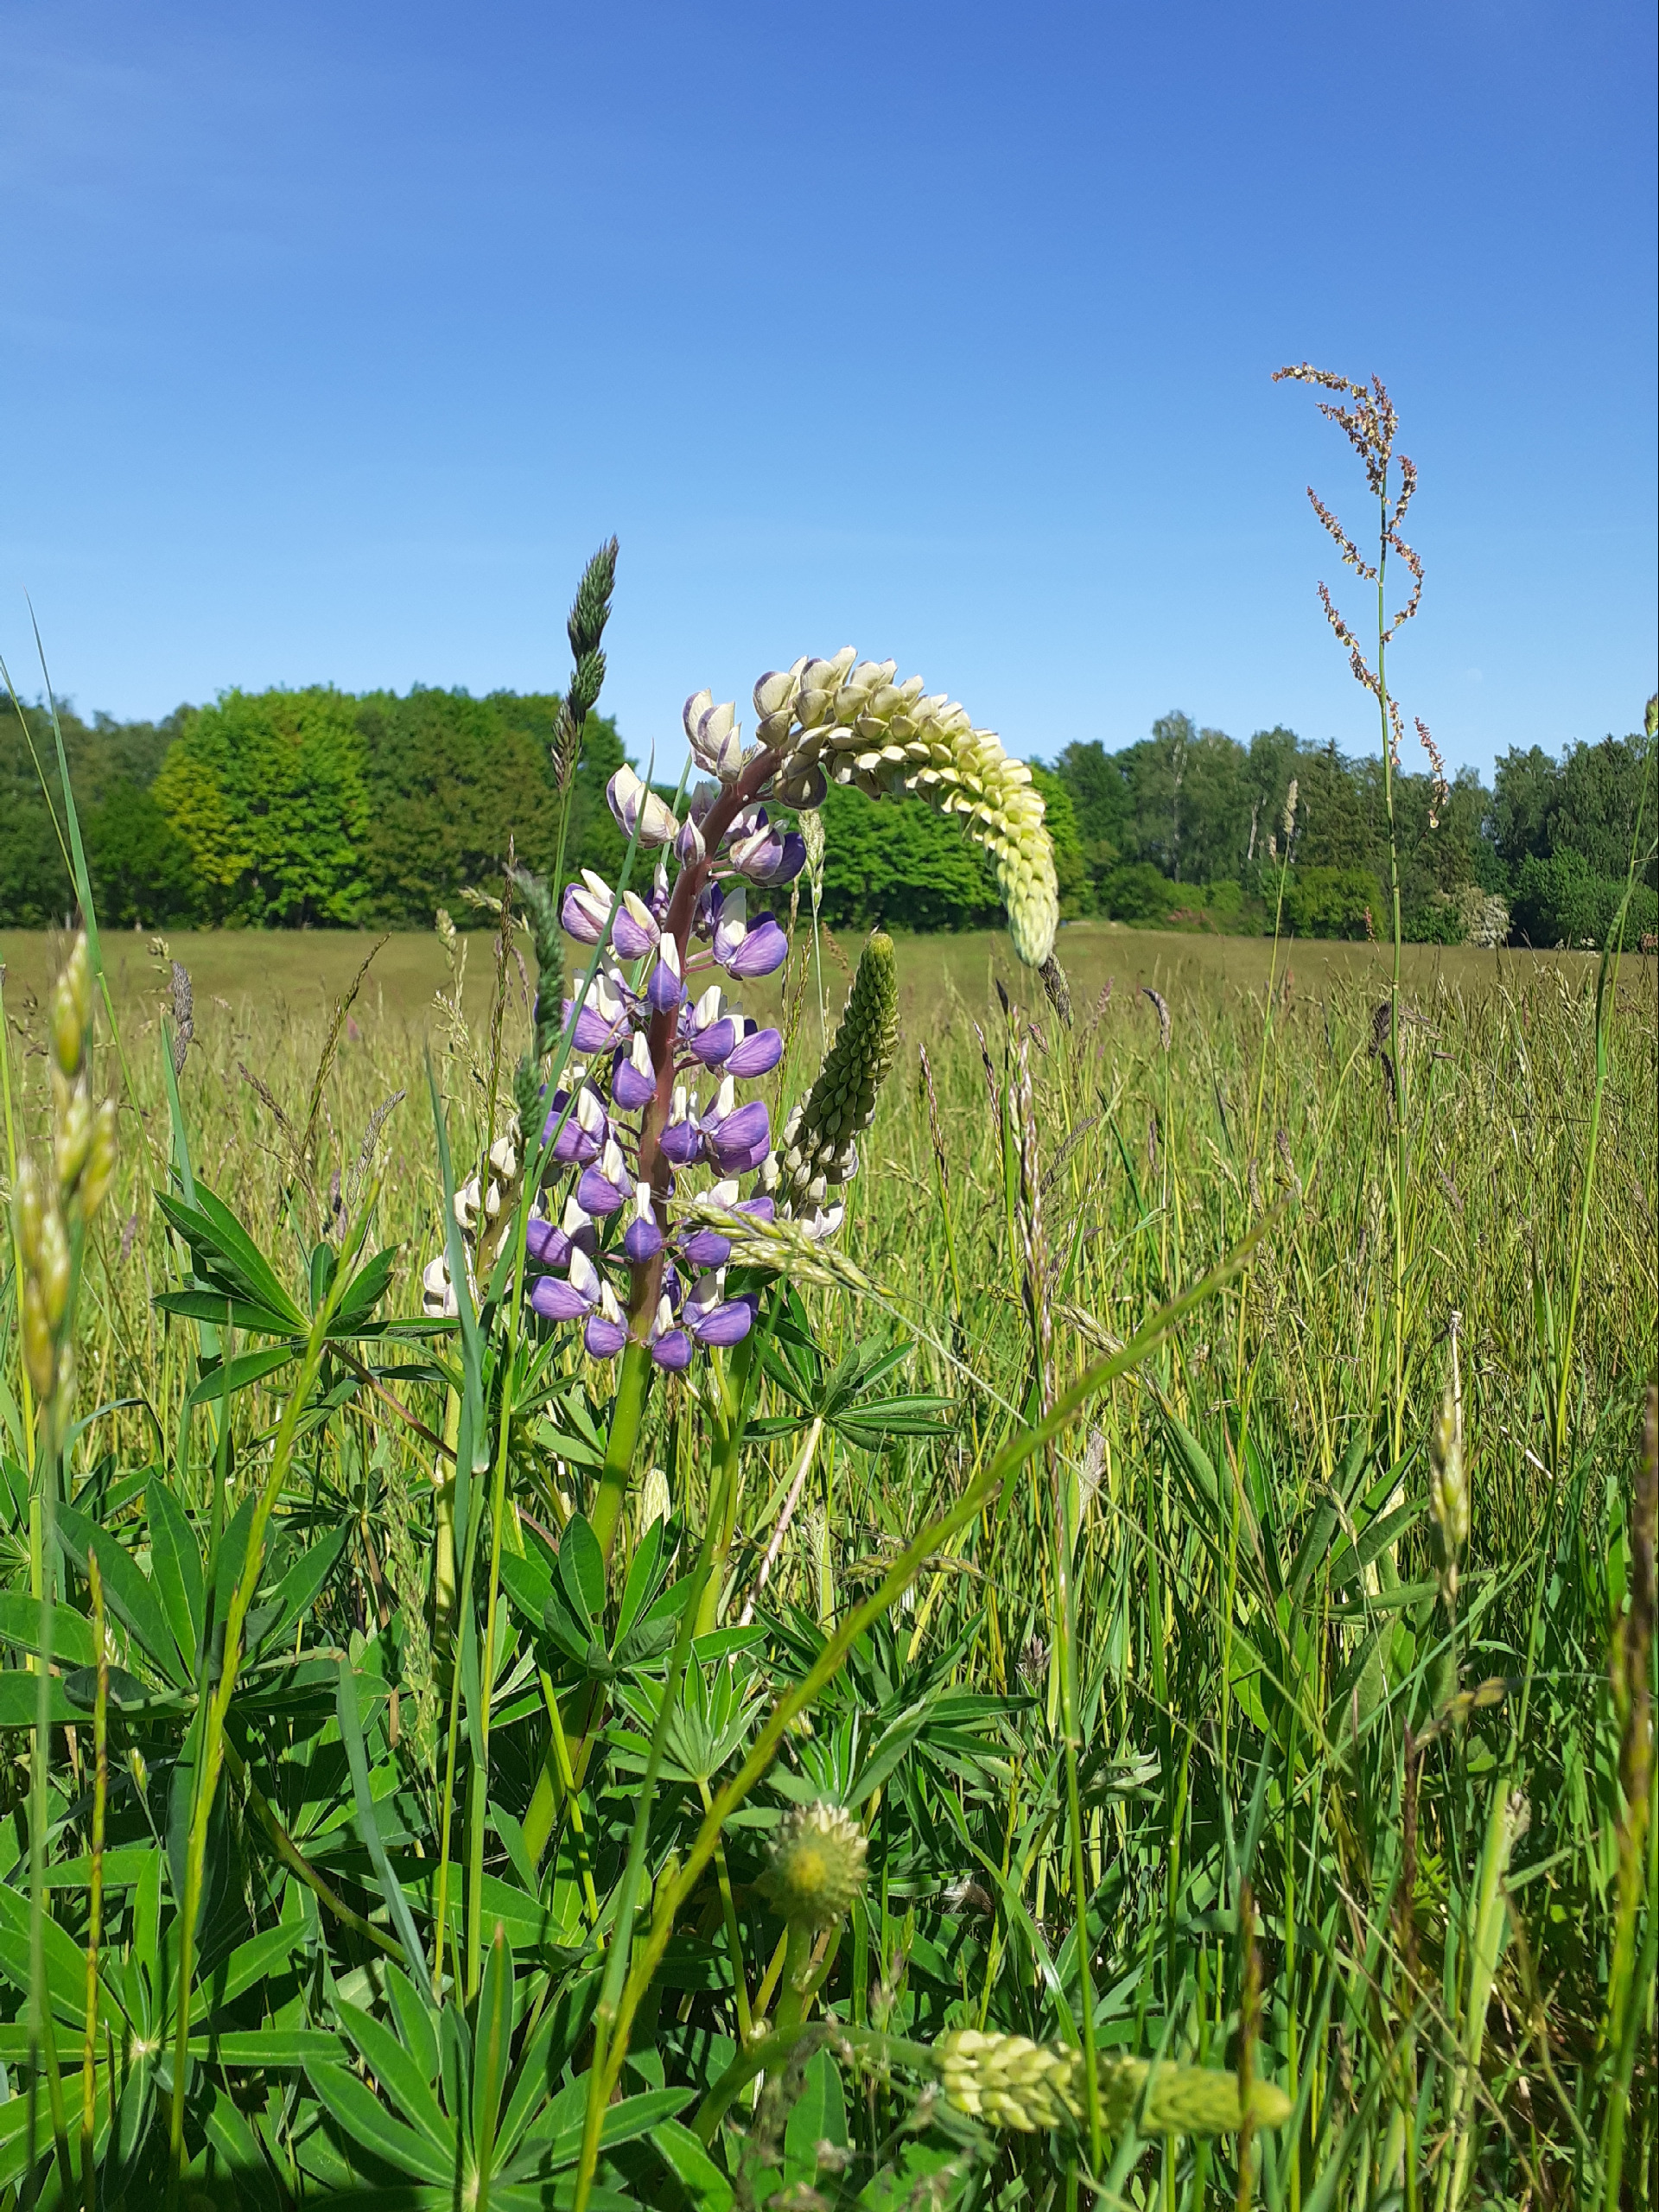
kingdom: Plantae
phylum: Tracheophyta
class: Magnoliopsida
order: Fabales
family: Fabaceae
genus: Lupinus
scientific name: Lupinus polyphyllus
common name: Mangebladet lupin
